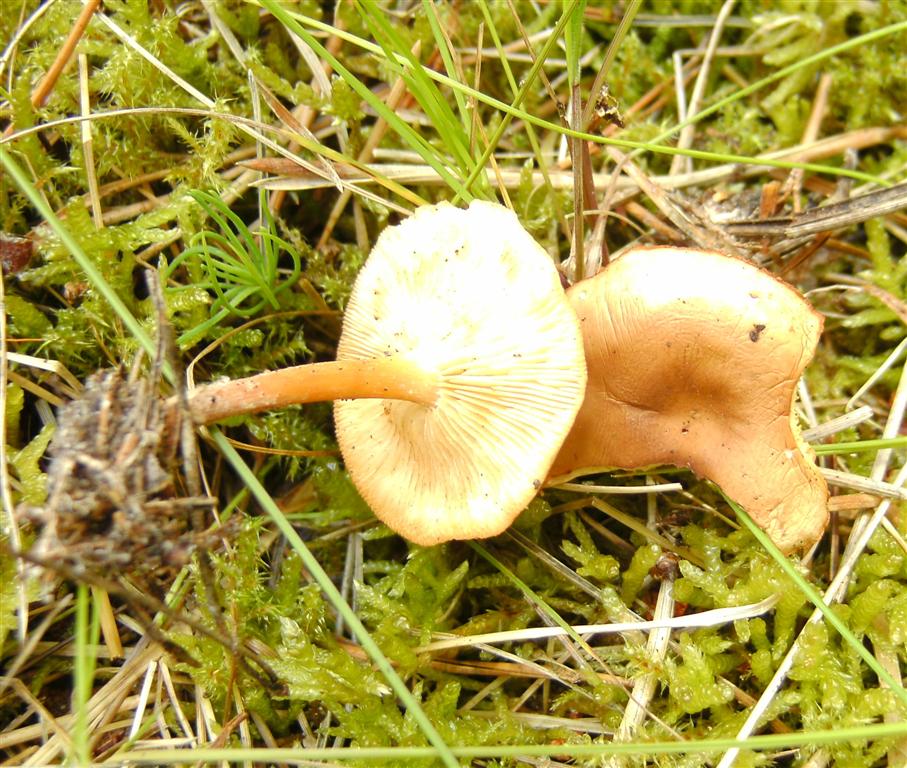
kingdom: Fungi
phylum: Basidiomycota
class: Agaricomycetes
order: Agaricales
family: Omphalotaceae
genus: Gymnopus
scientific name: Gymnopus dryophilus
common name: løv-fladhat
